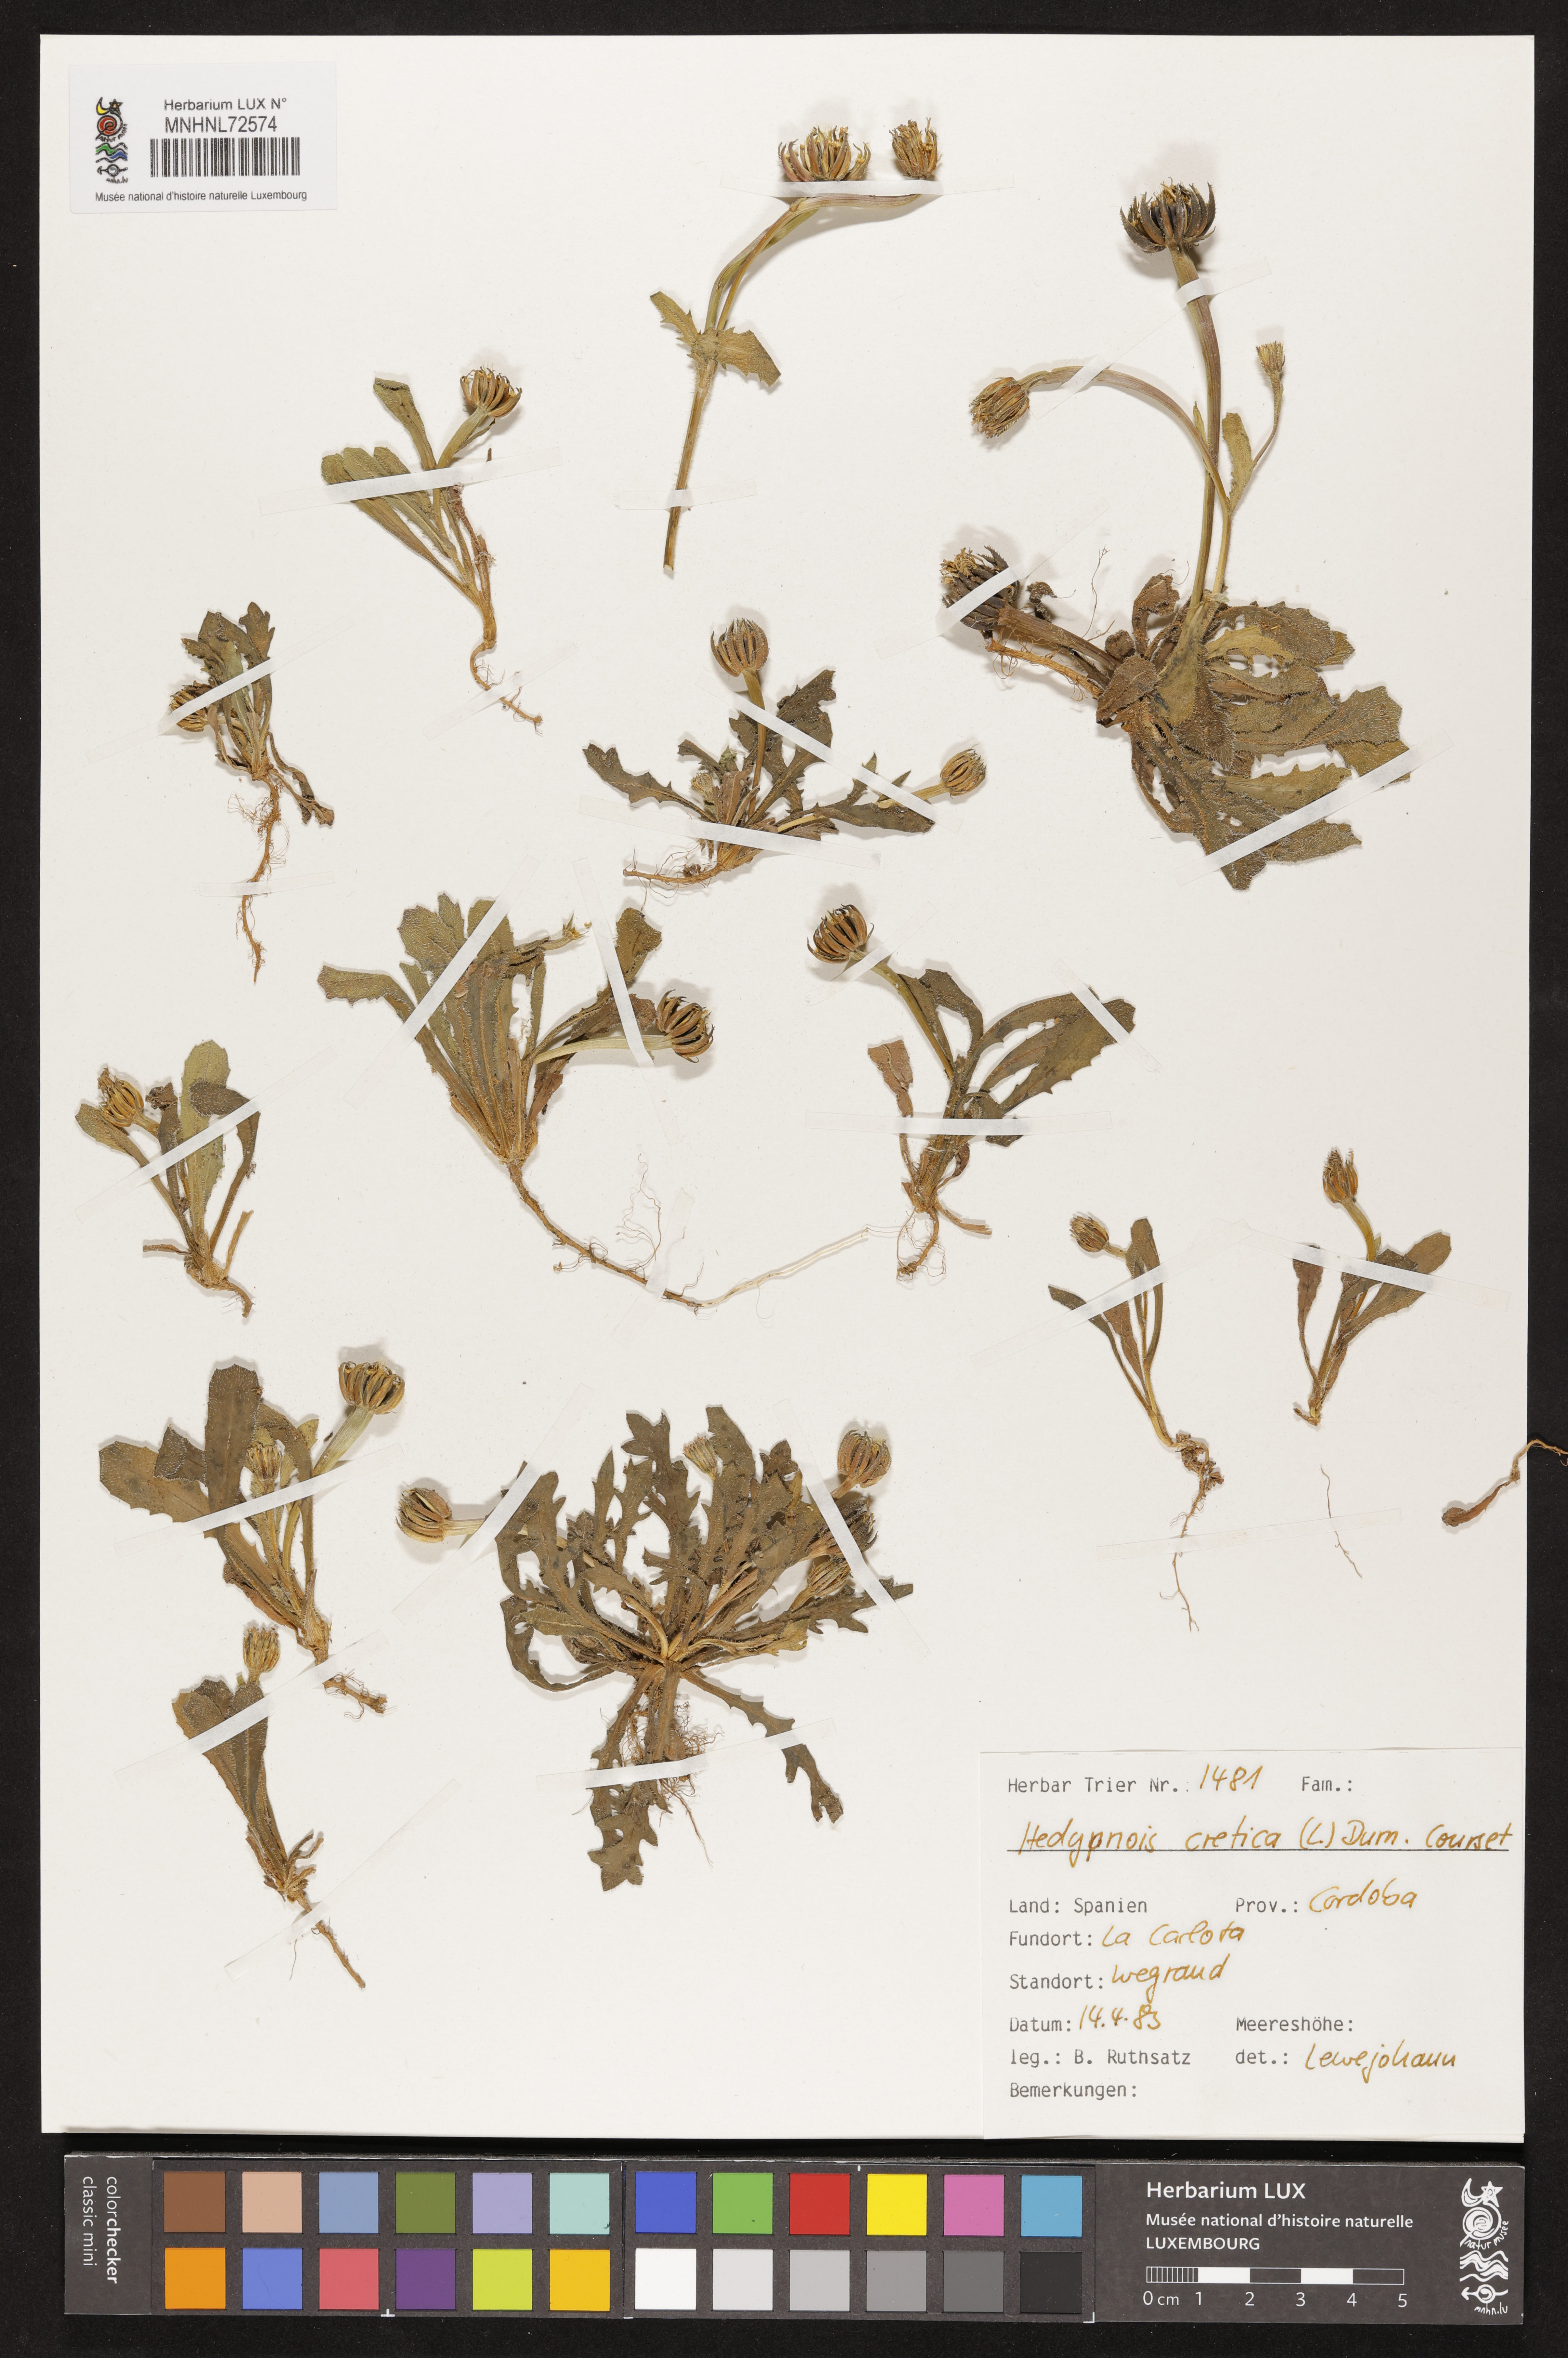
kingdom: Plantae
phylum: Tracheophyta
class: Magnoliopsida
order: Asterales
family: Asteraceae
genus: Hedypnois
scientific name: Hedypnois cretica
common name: Scaly hawkbit
